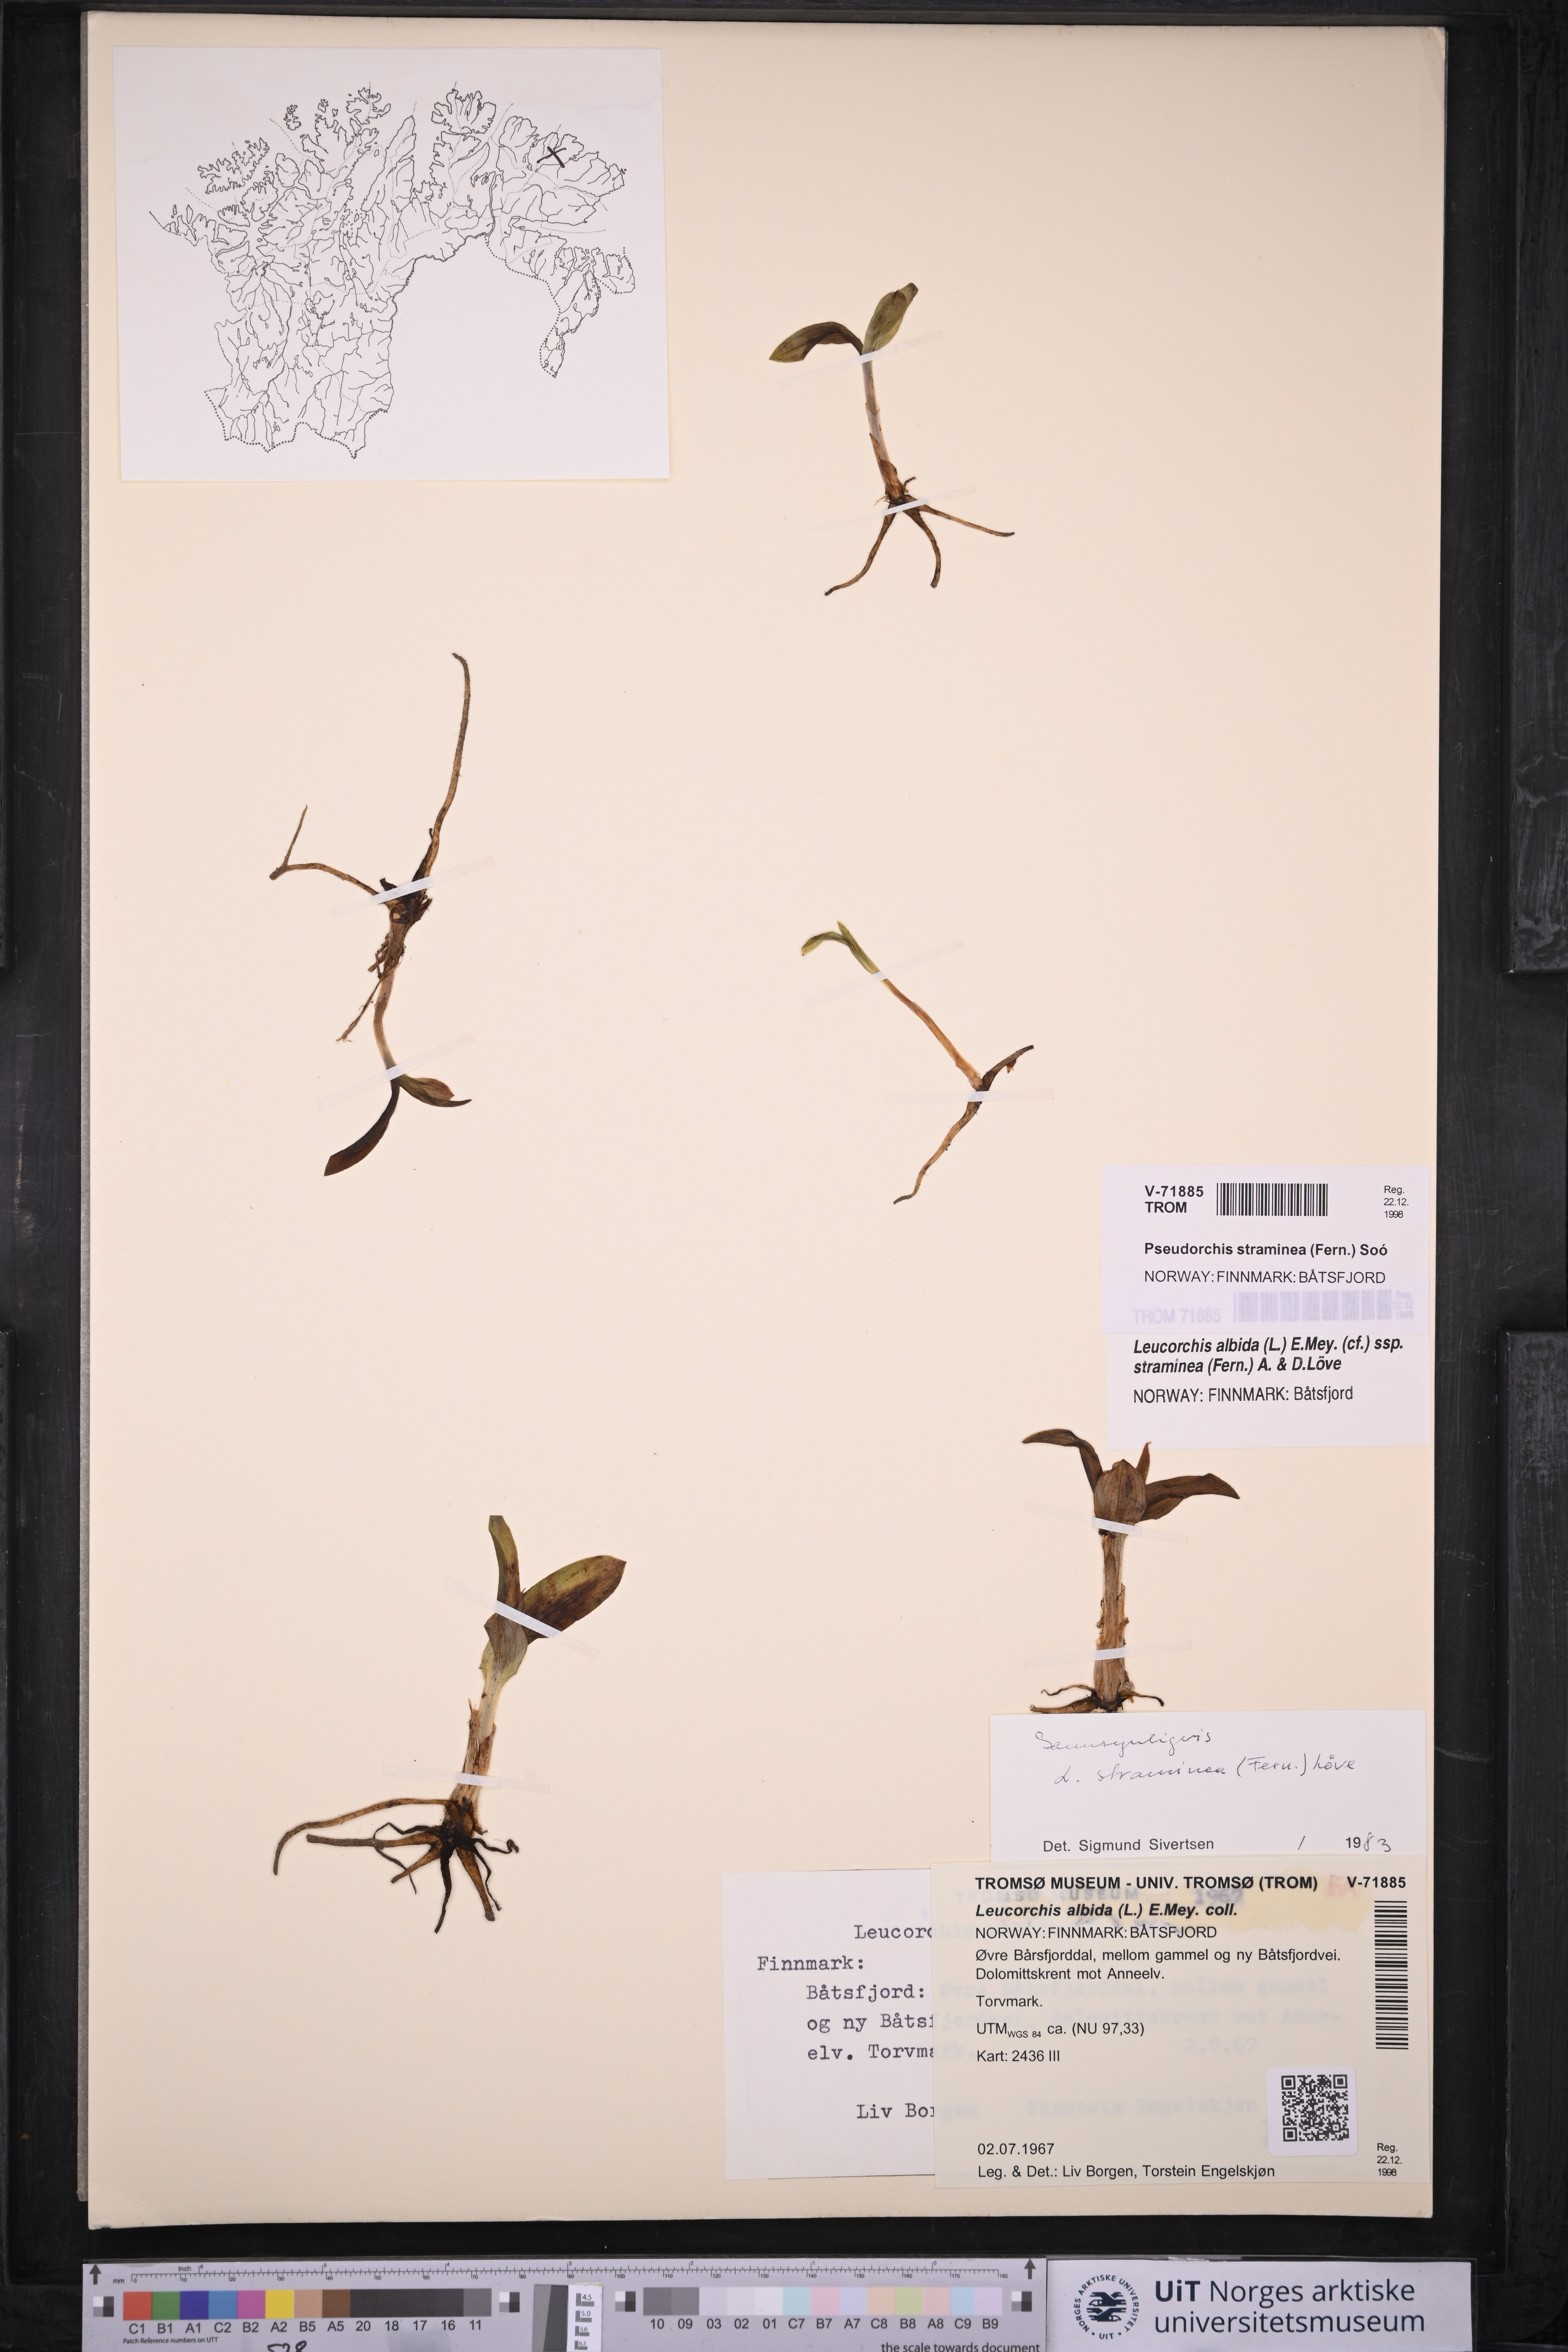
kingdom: Plantae
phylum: Tracheophyta
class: Liliopsida
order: Asparagales
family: Orchidaceae
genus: Pseudorchis
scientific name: Pseudorchis straminea
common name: Vanilla-scented bog orchid
